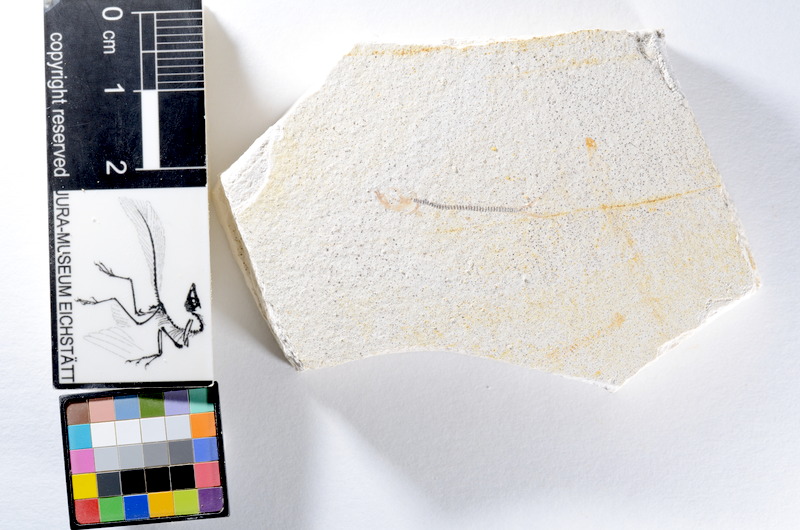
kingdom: Animalia
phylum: Chordata
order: Salmoniformes
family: Orthogonikleithridae
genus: Orthogonikleithrus
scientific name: Orthogonikleithrus hoelli
